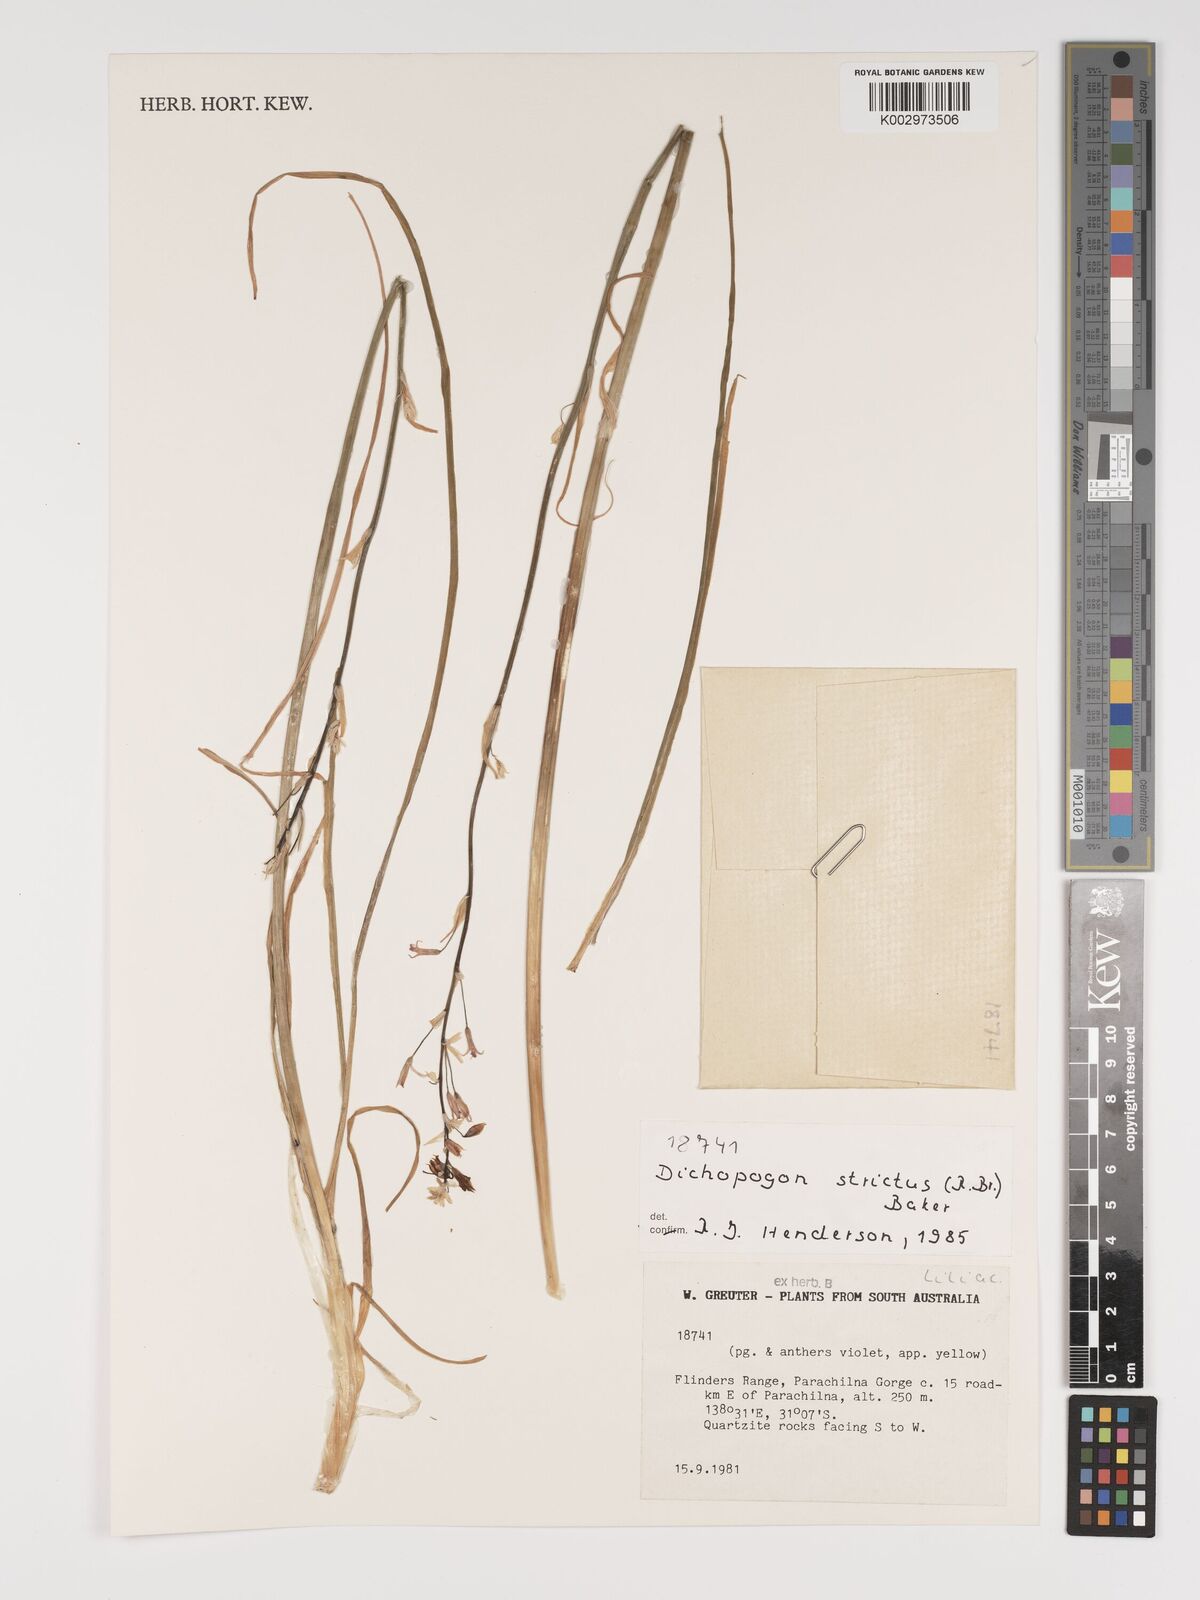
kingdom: Plantae
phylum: Tracheophyta
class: Liliopsida
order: Asparagales
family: Asparagaceae
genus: Arthropodium
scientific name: Arthropodium strictum
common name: Chocolate-lily
